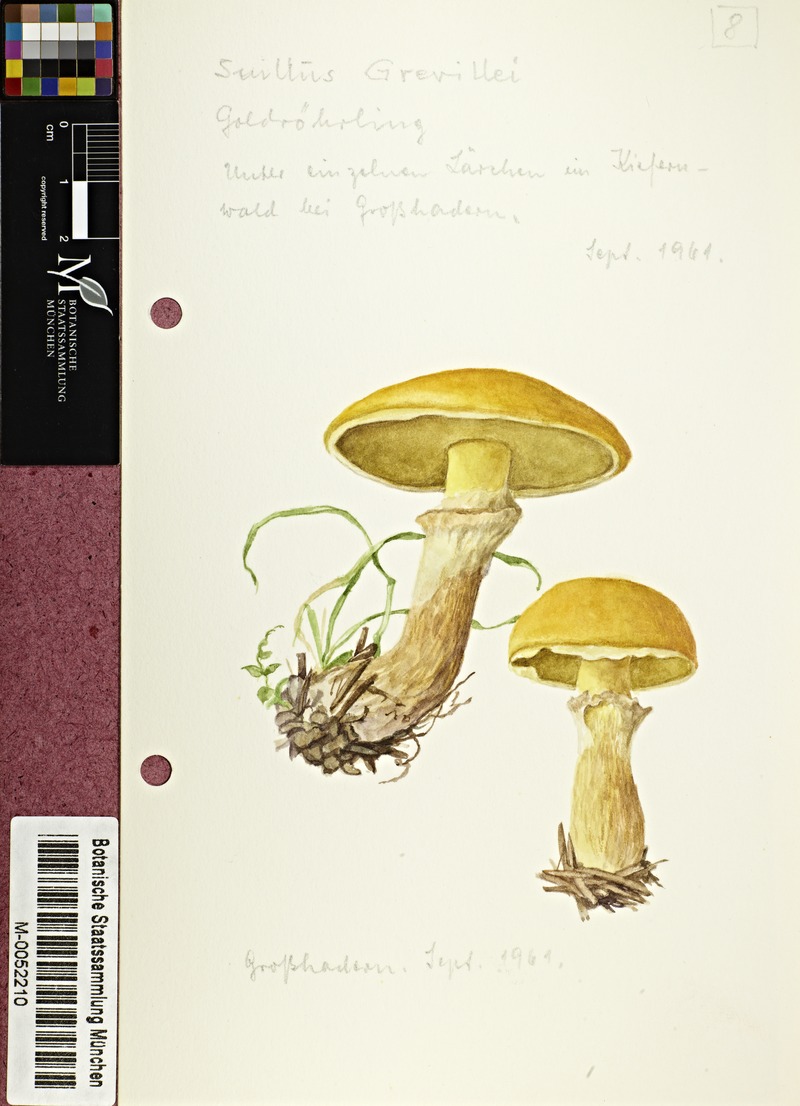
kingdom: Fungi
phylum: Basidiomycota
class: Agaricomycetes
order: Boletales
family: Suillaceae
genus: Suillus
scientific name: Suillus grevillei
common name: Larch bolete
